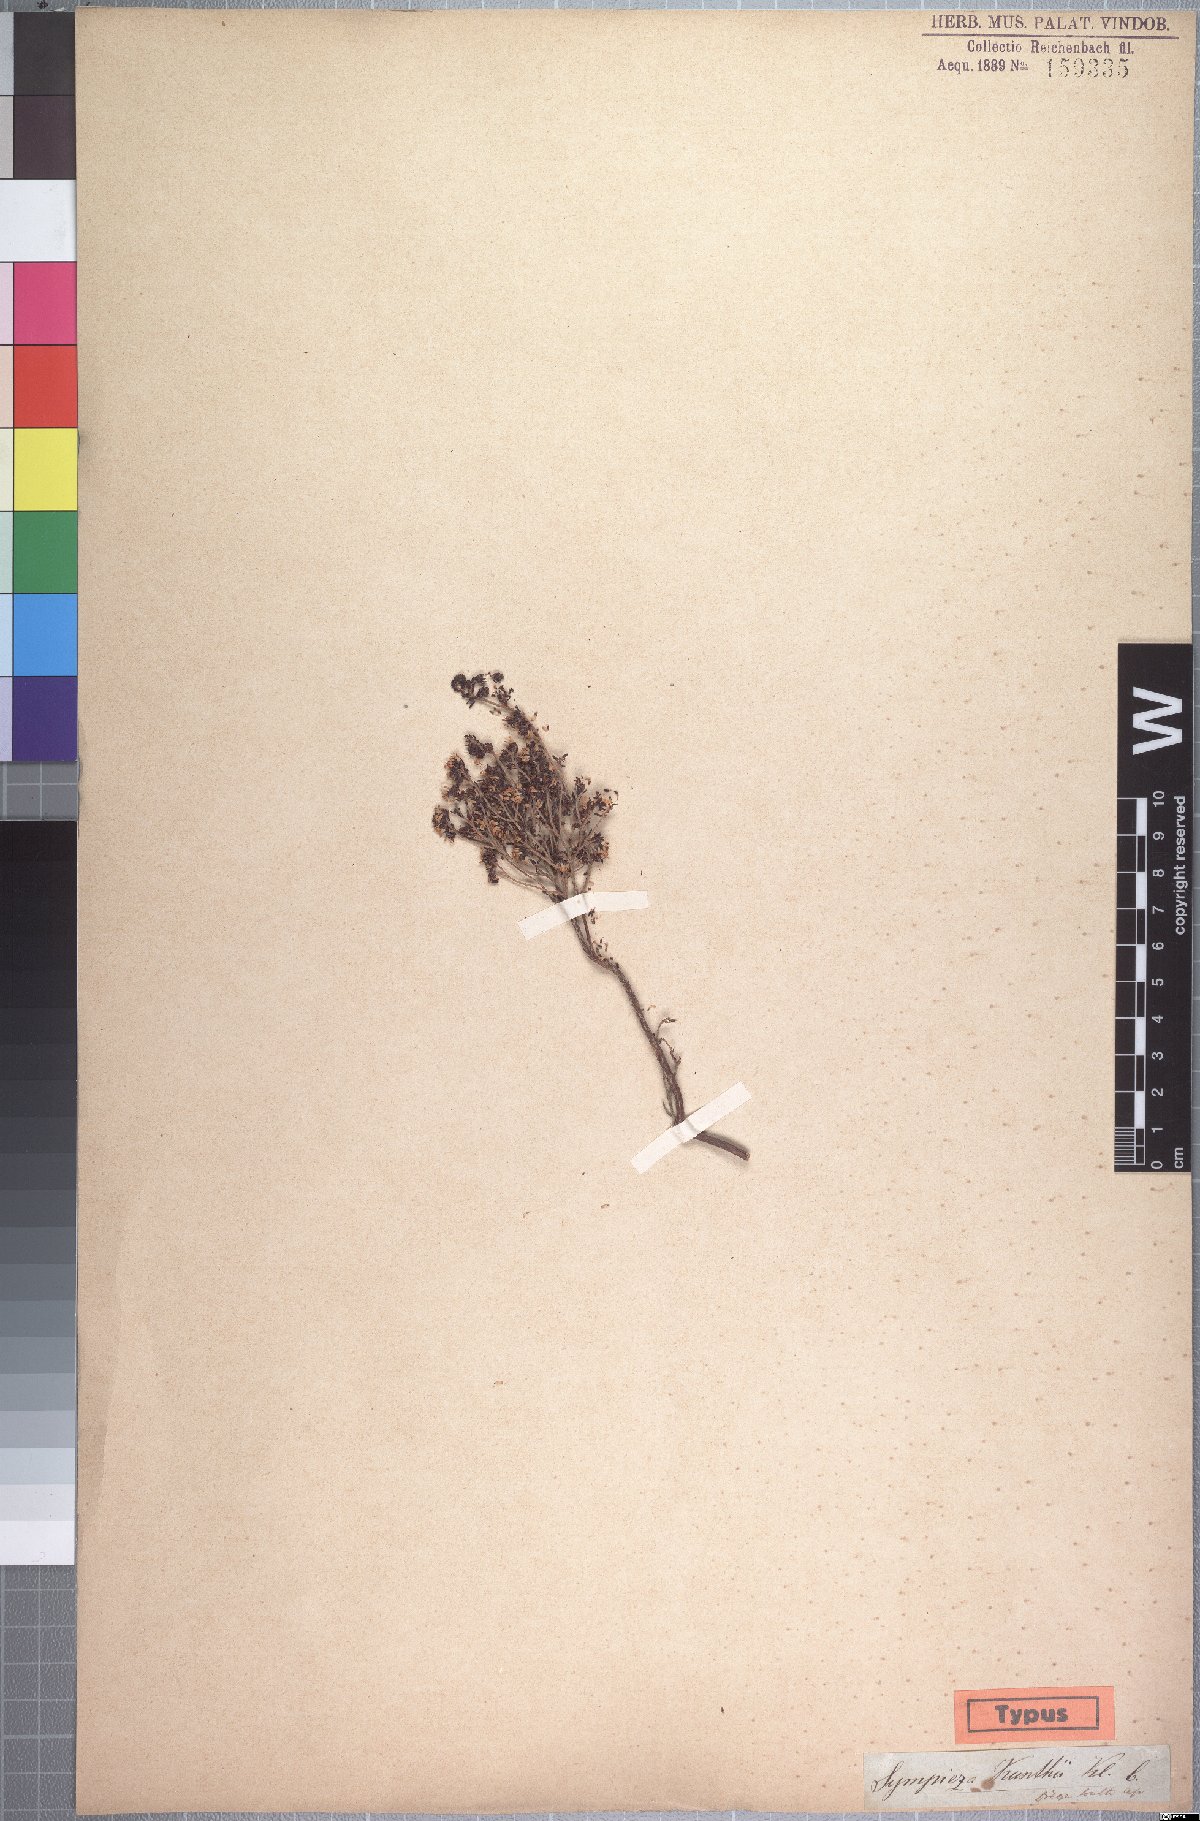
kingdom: Plantae
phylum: Tracheophyta
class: Magnoliopsida
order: Ericales
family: Ericaceae
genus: Erica
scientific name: Erica benthamiana
